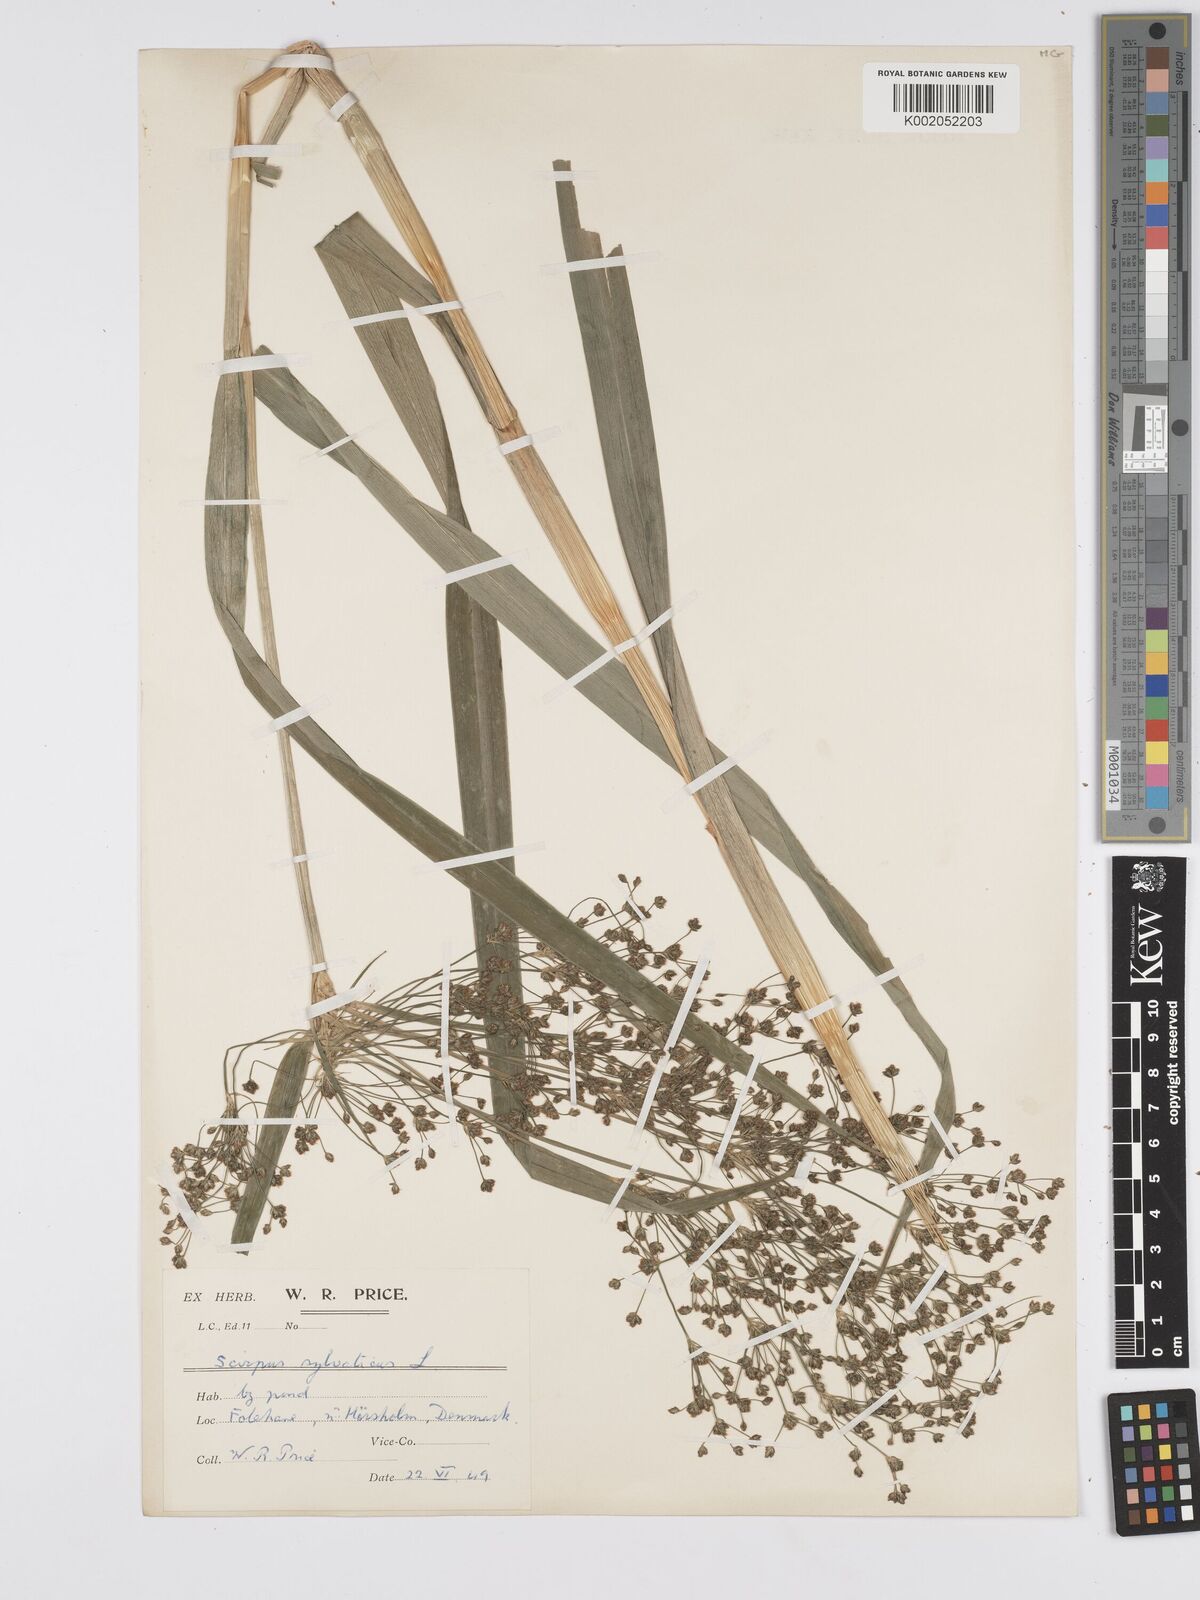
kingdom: Plantae
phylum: Tracheophyta
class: Liliopsida
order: Poales
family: Cyperaceae
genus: Scirpus
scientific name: Scirpus sylvaticus
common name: Wood club-rush
